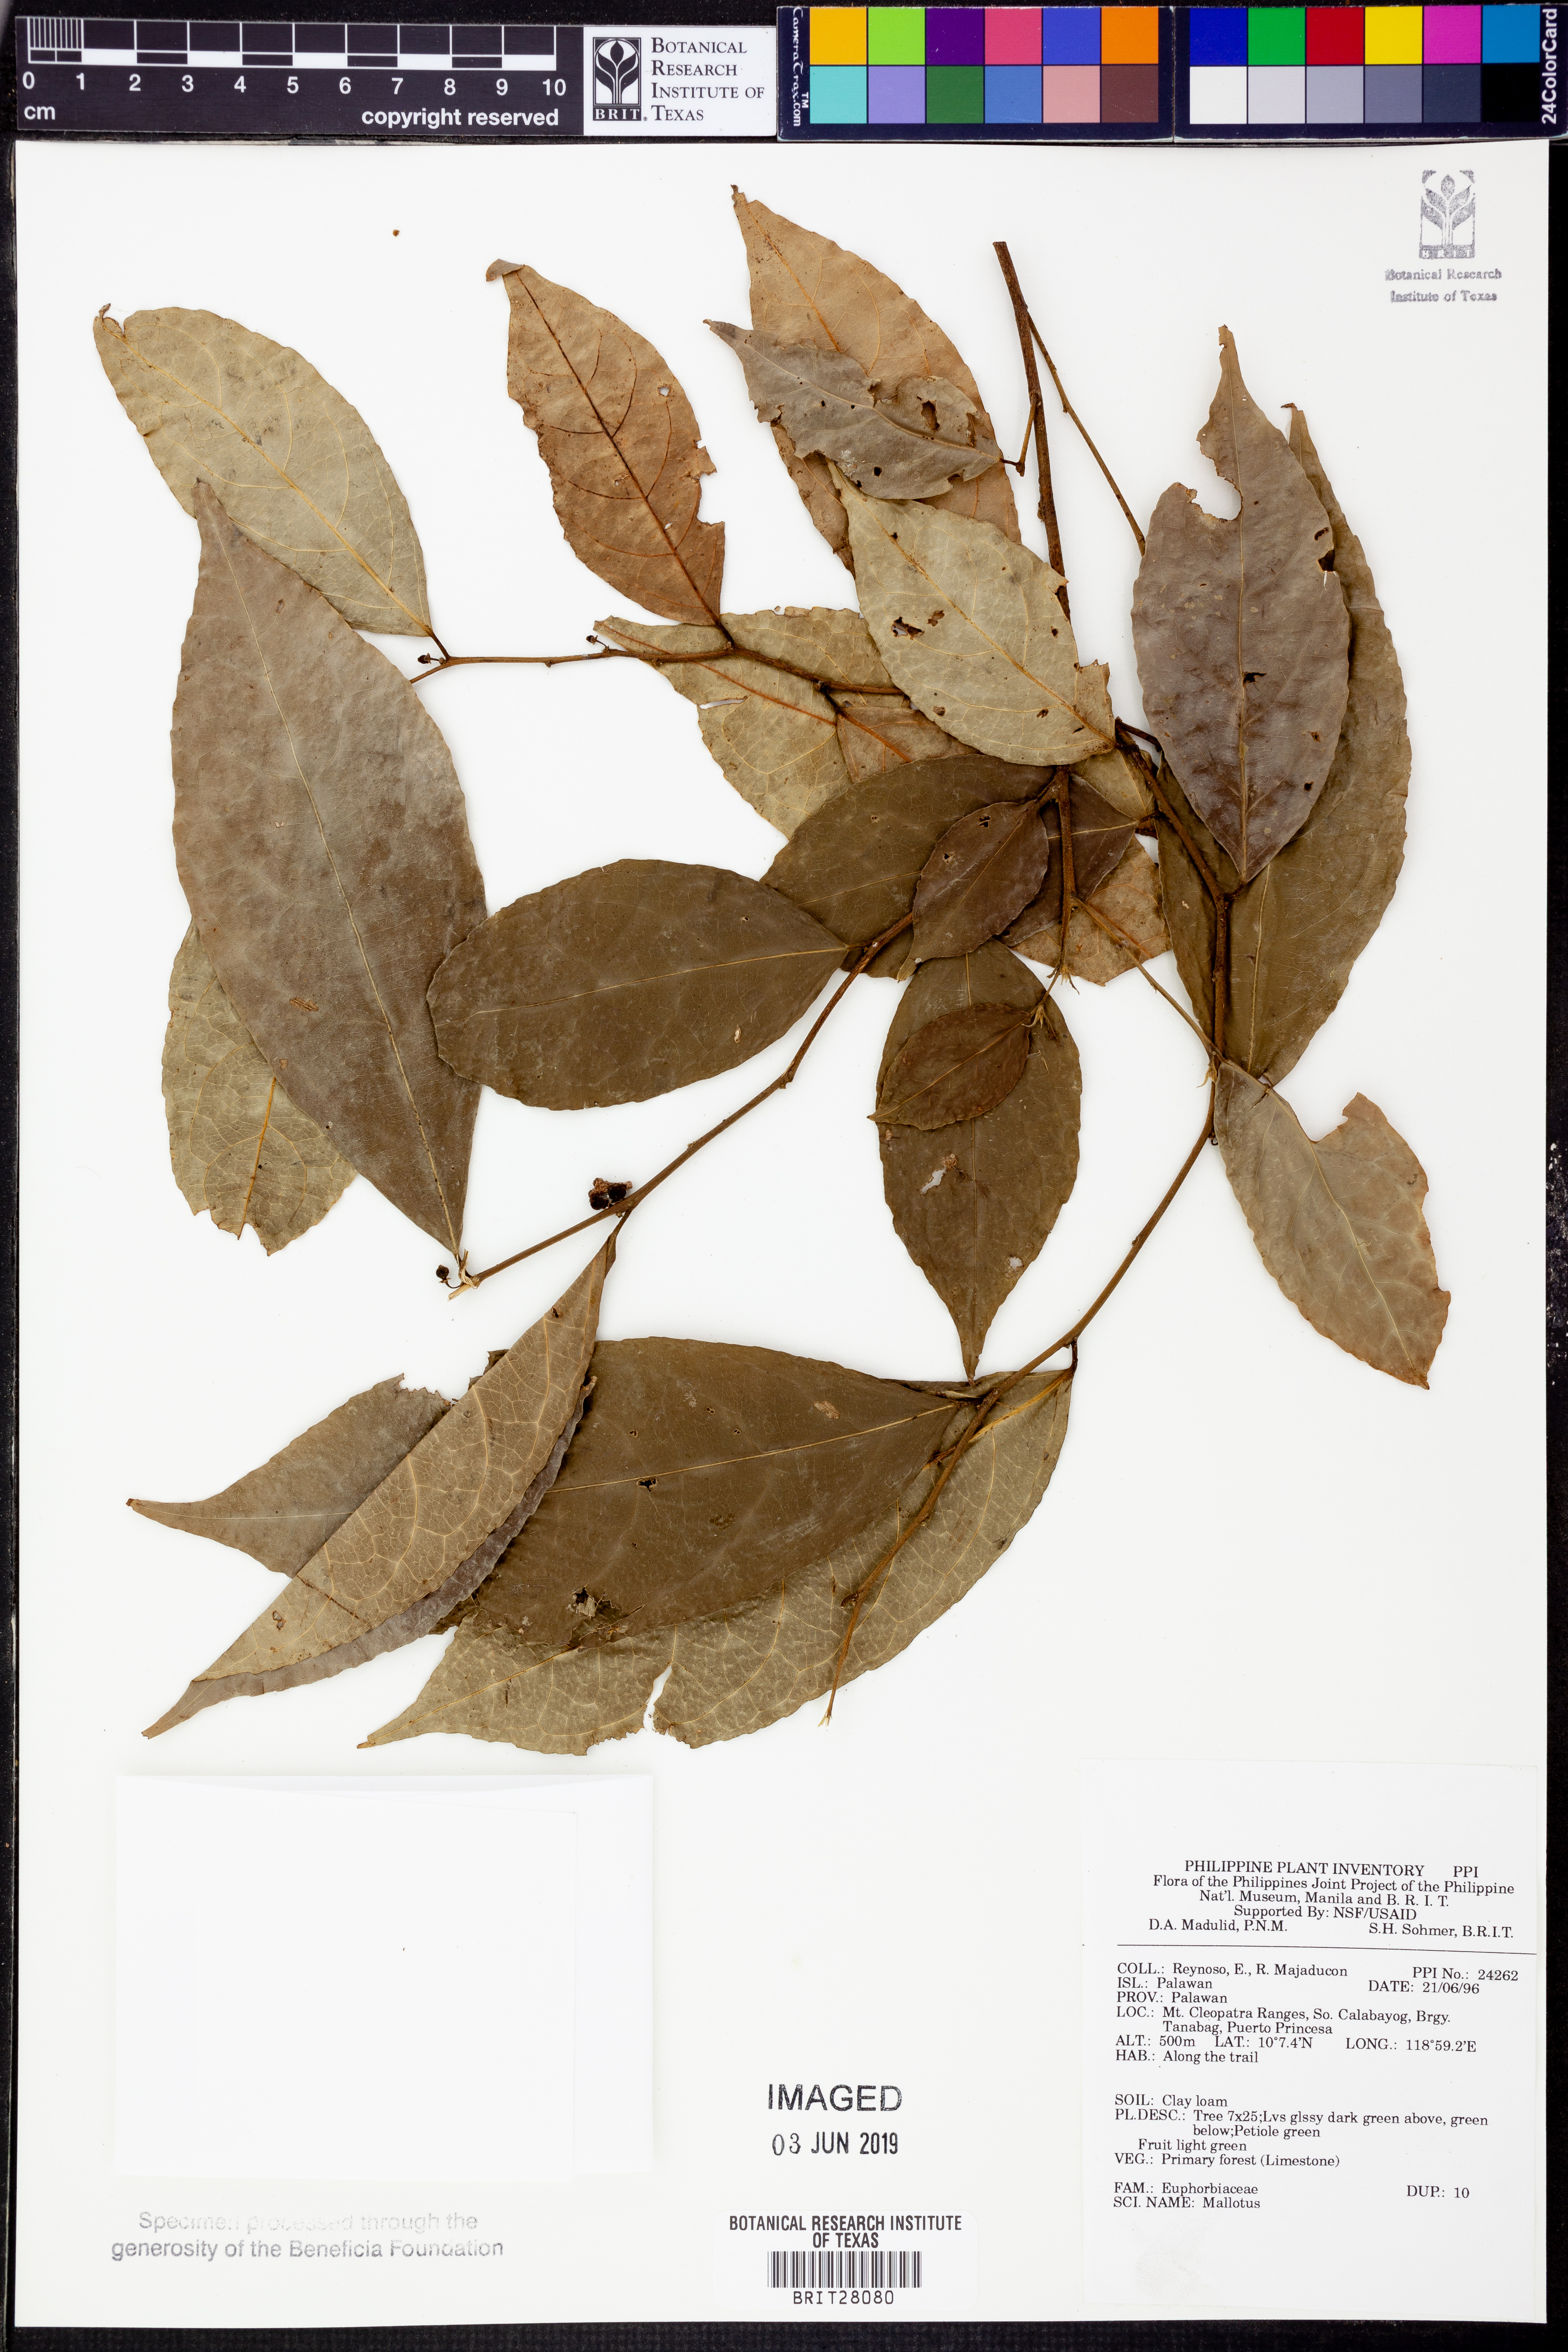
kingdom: Plantae
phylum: Tracheophyta
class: Magnoliopsida
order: Malpighiales
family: Euphorbiaceae
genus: Mallotus
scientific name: Mallotus
